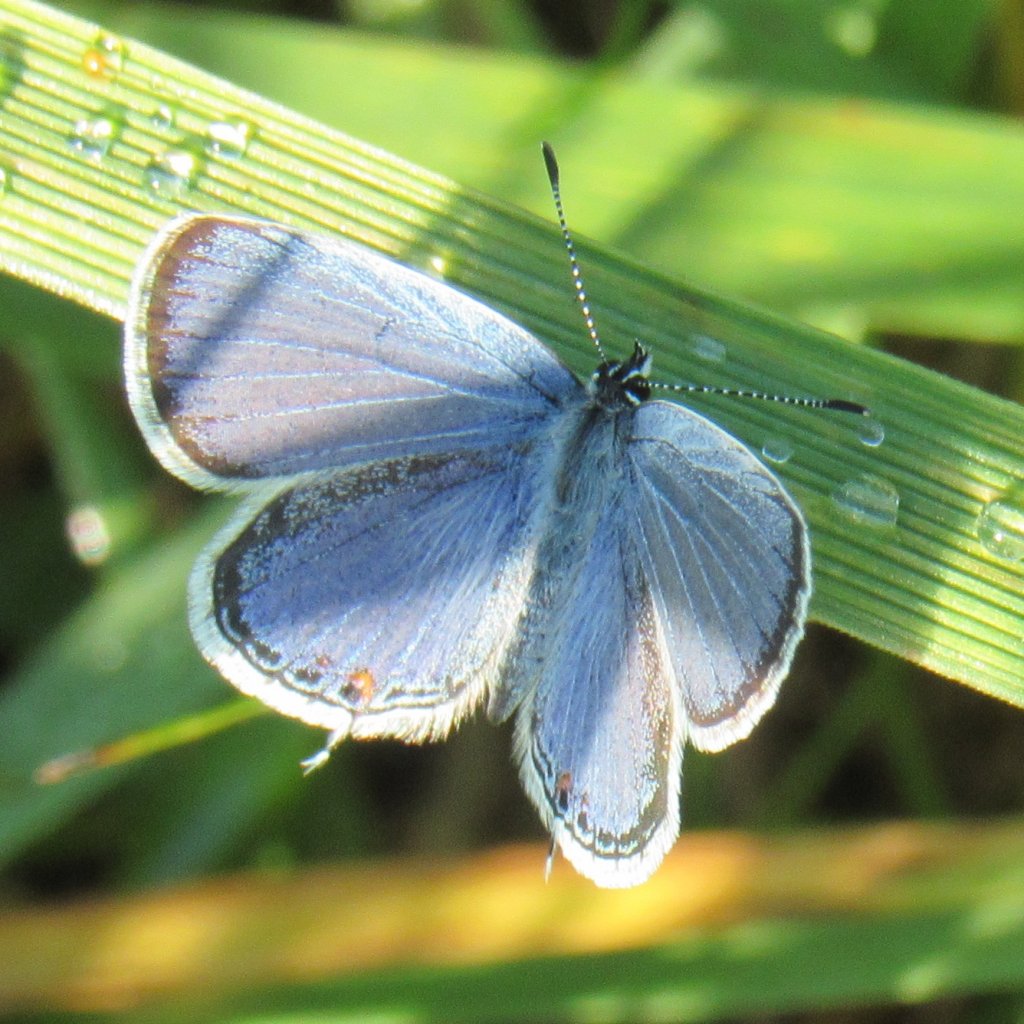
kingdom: Animalia
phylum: Arthropoda
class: Insecta
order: Lepidoptera
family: Lycaenidae
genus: Elkalyce
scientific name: Elkalyce comyntas
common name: Eastern Tailed-Blue
